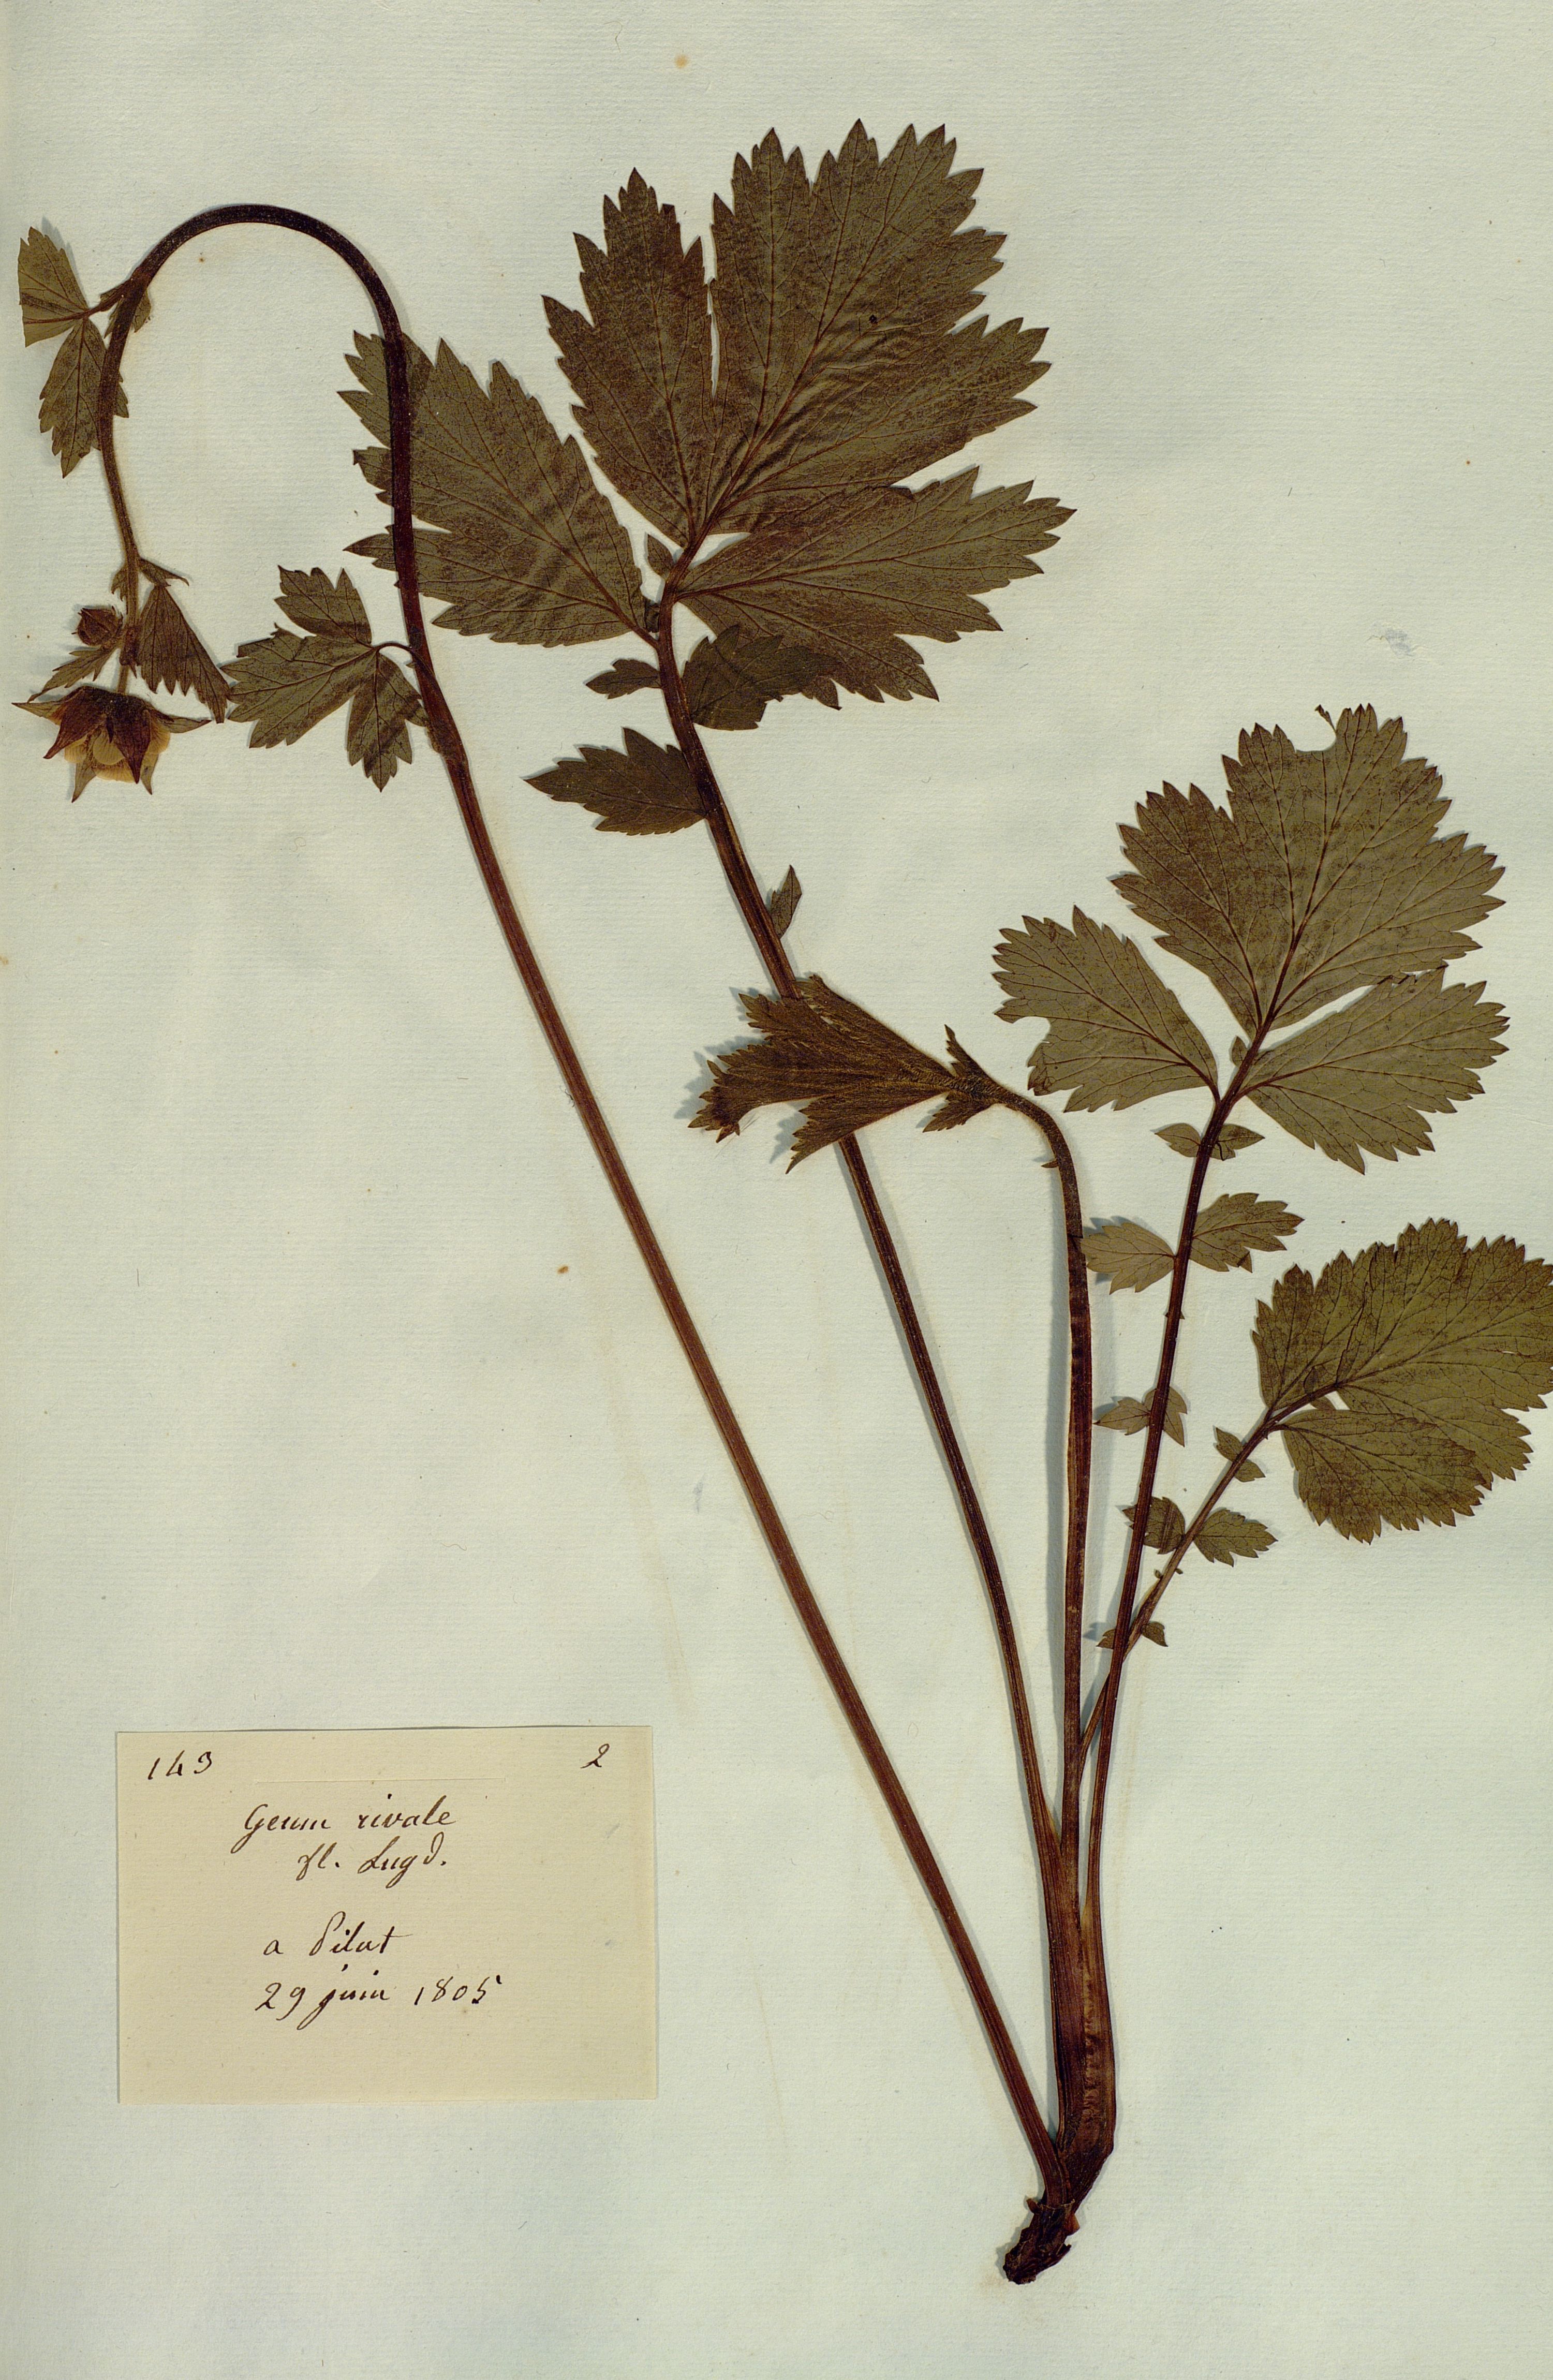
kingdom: Plantae
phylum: Tracheophyta
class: Magnoliopsida
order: Rosales
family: Rosaceae
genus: Geum
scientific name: Geum rivale
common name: Water avens
